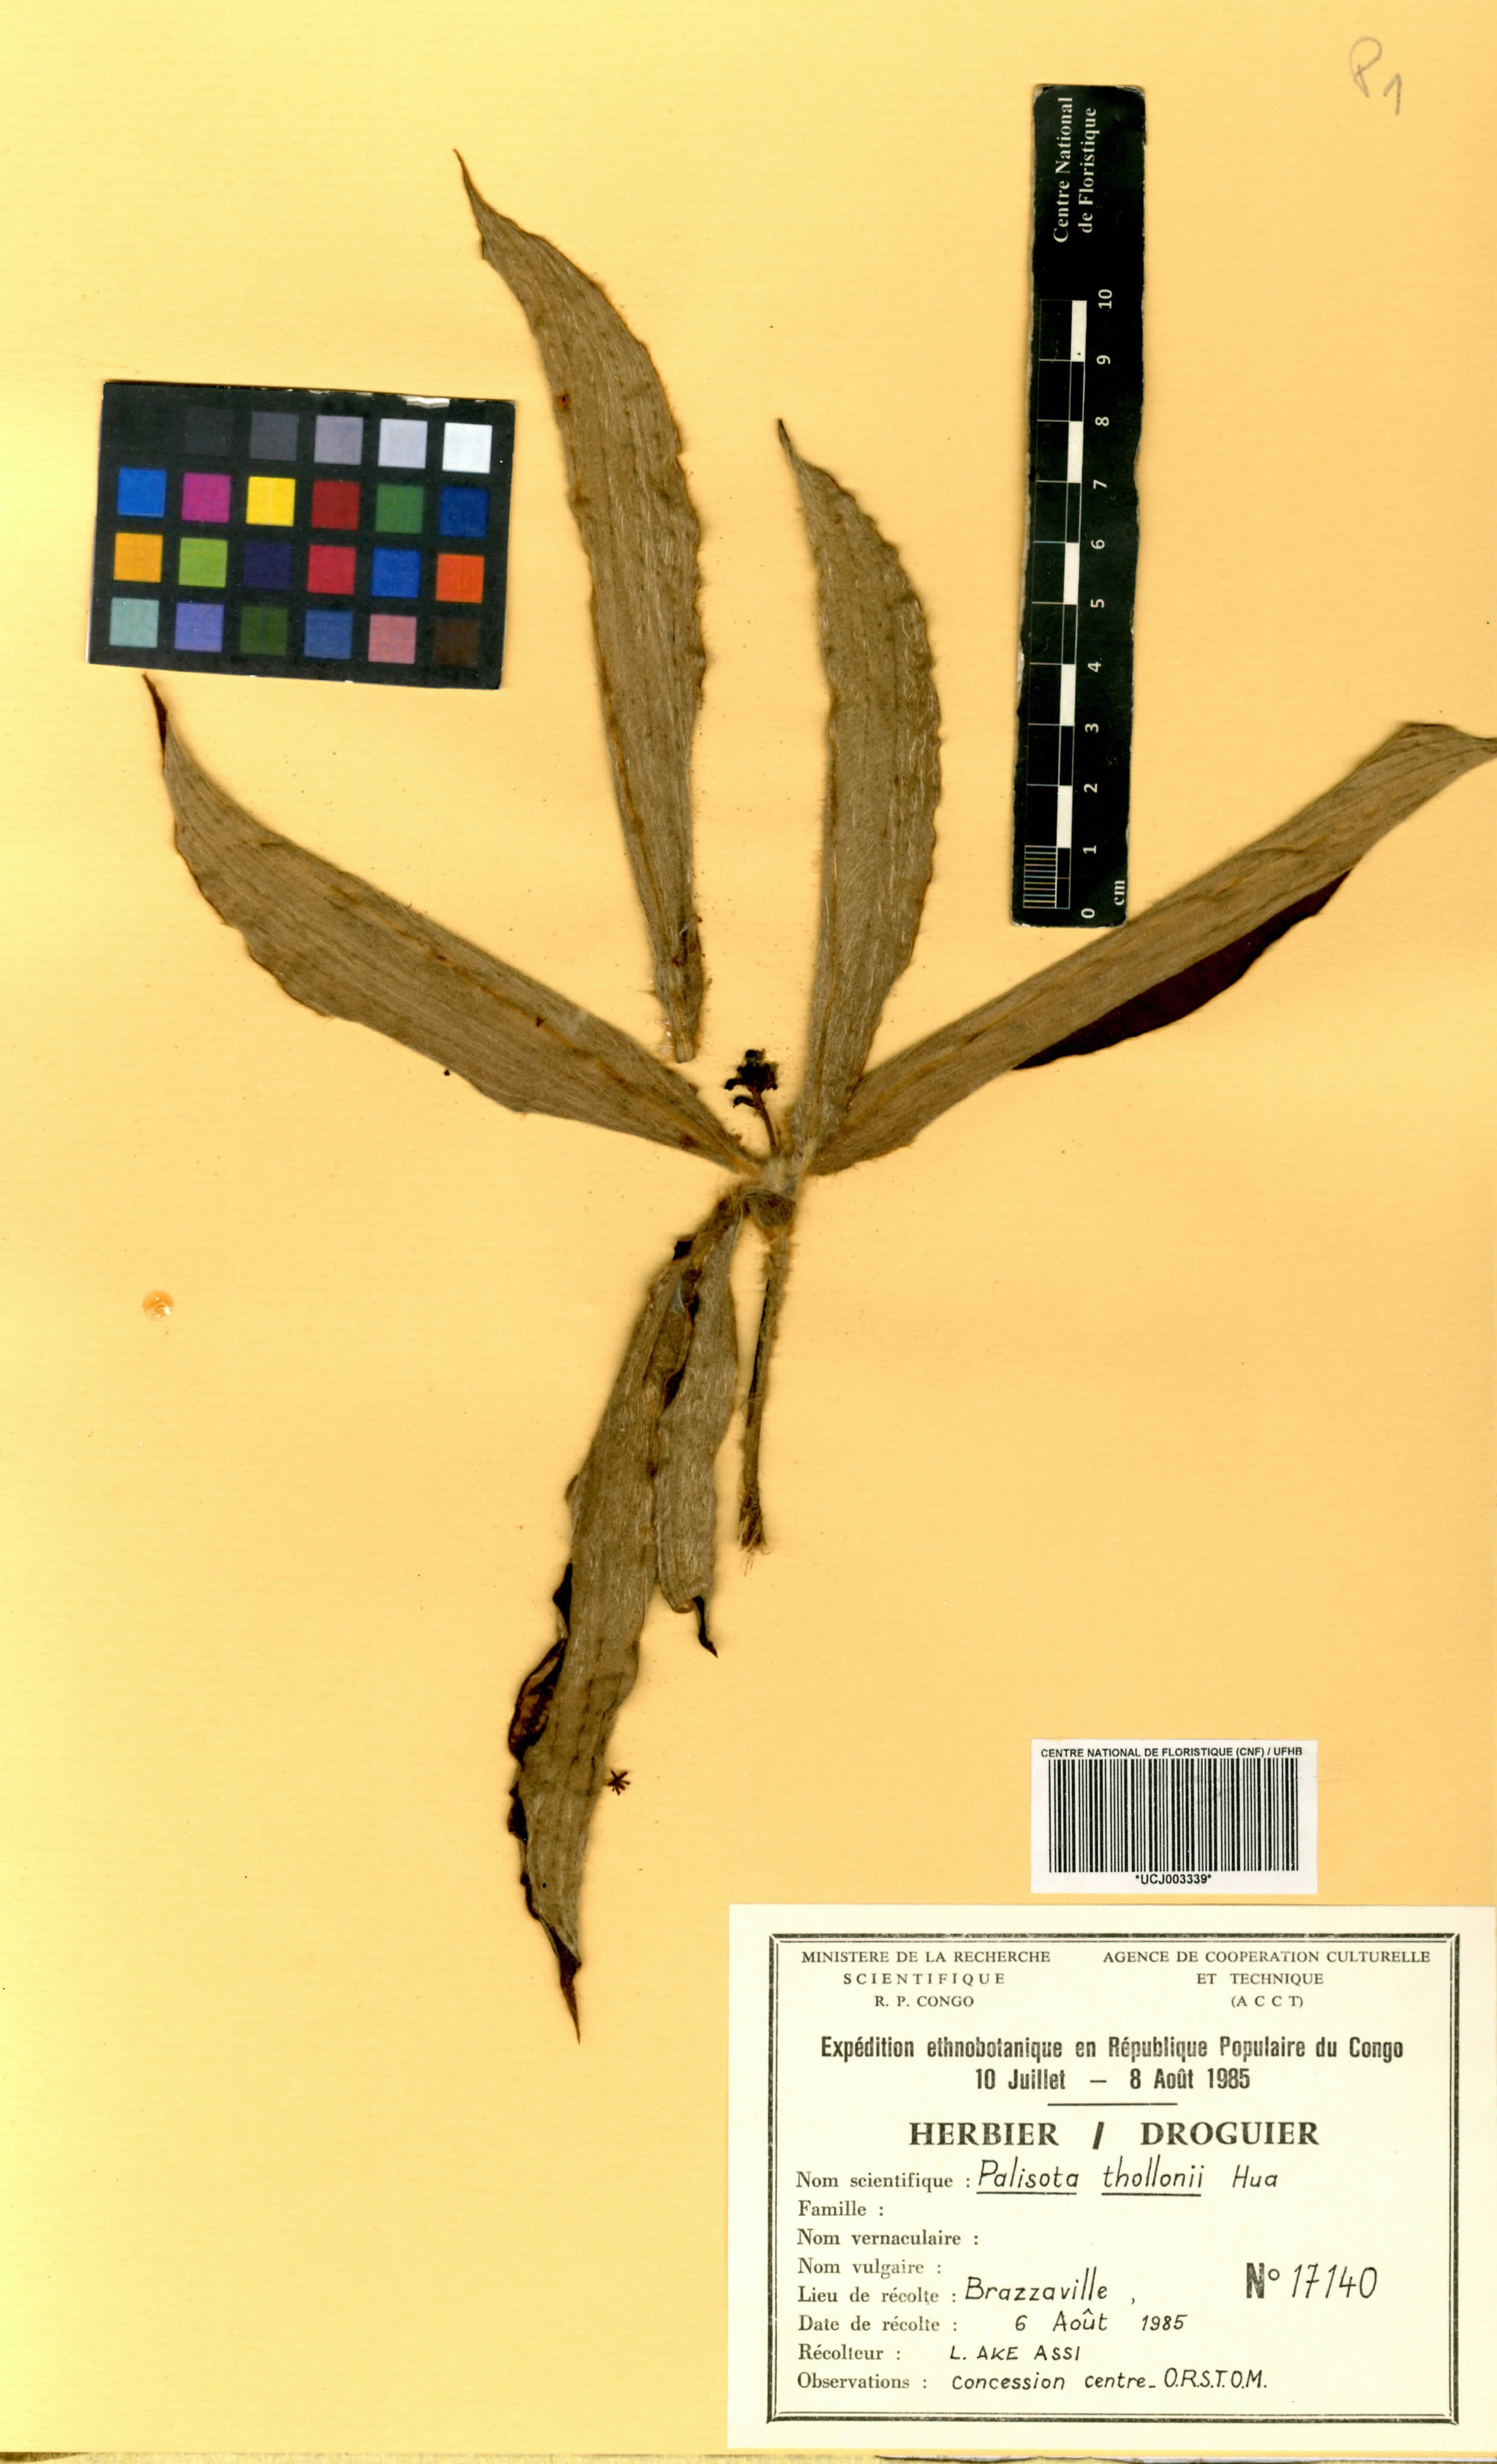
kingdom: Plantae
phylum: Tracheophyta
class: Liliopsida
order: Commelinales
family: Commelinaceae
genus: Palisota
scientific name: Palisota thollonii
